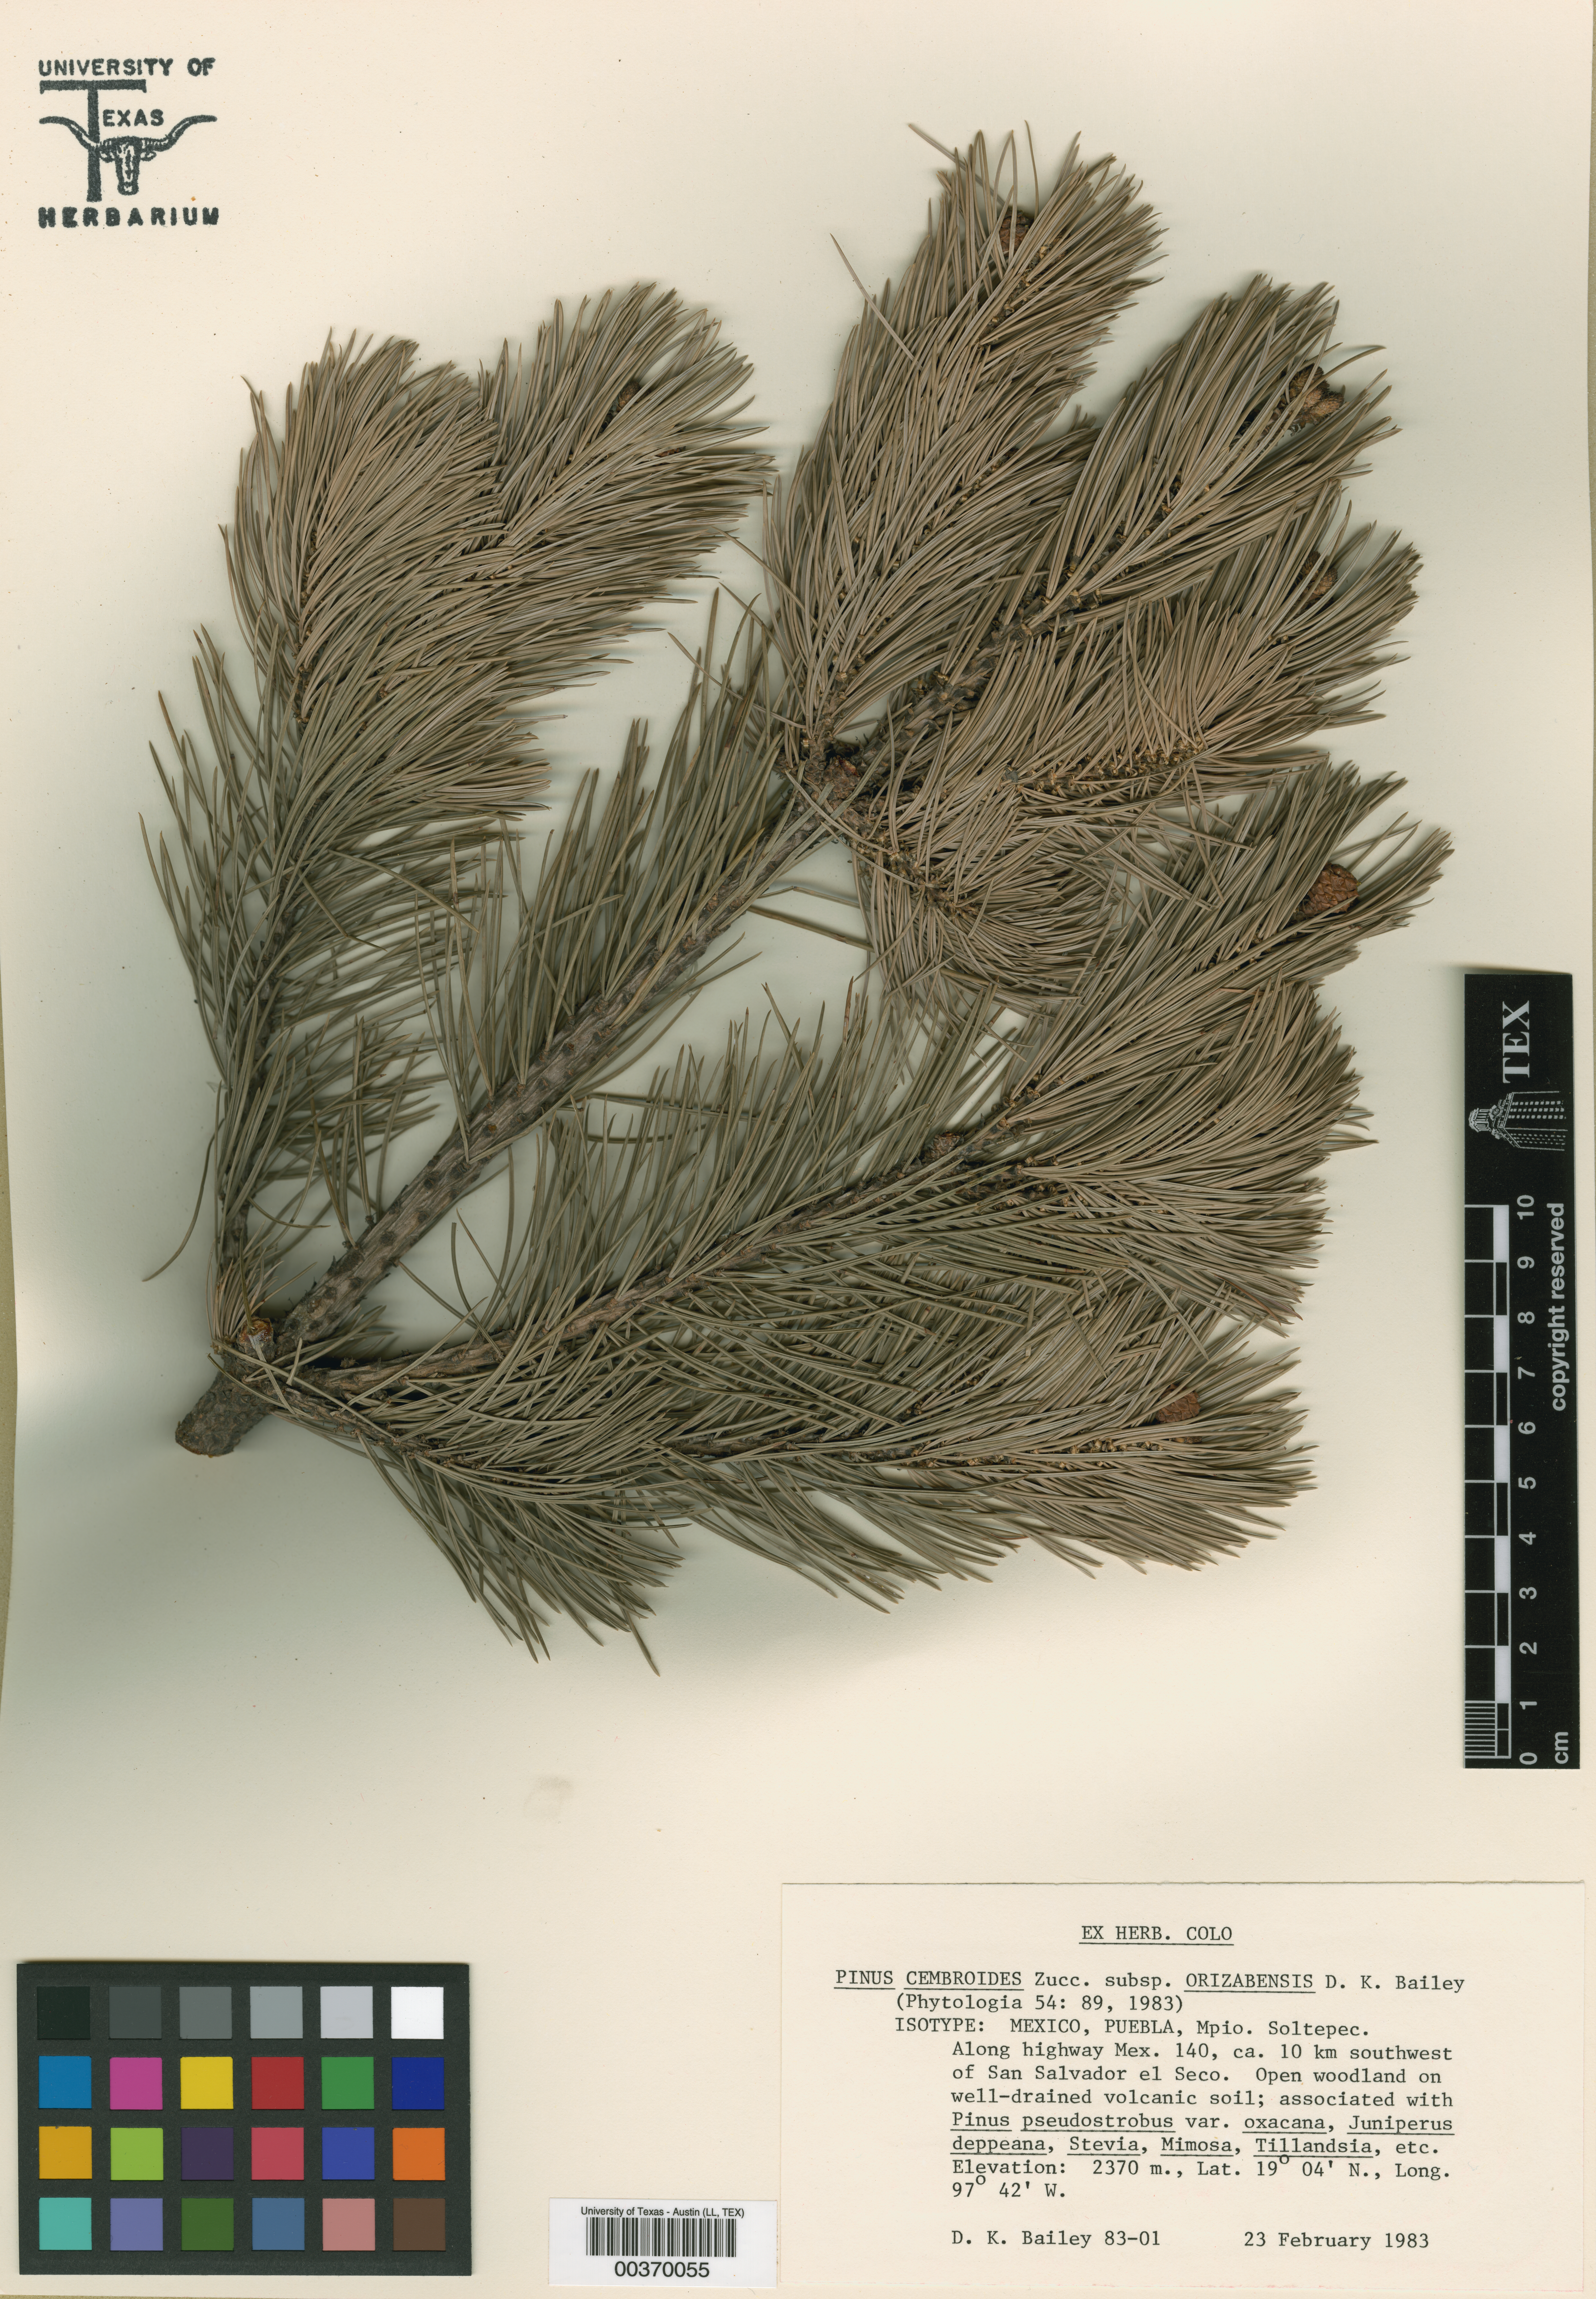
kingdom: Plantae
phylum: Tracheophyta
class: Pinopsida
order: Pinales
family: Pinaceae
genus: Pinus
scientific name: Pinus cembroides
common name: Mexican nut pine
